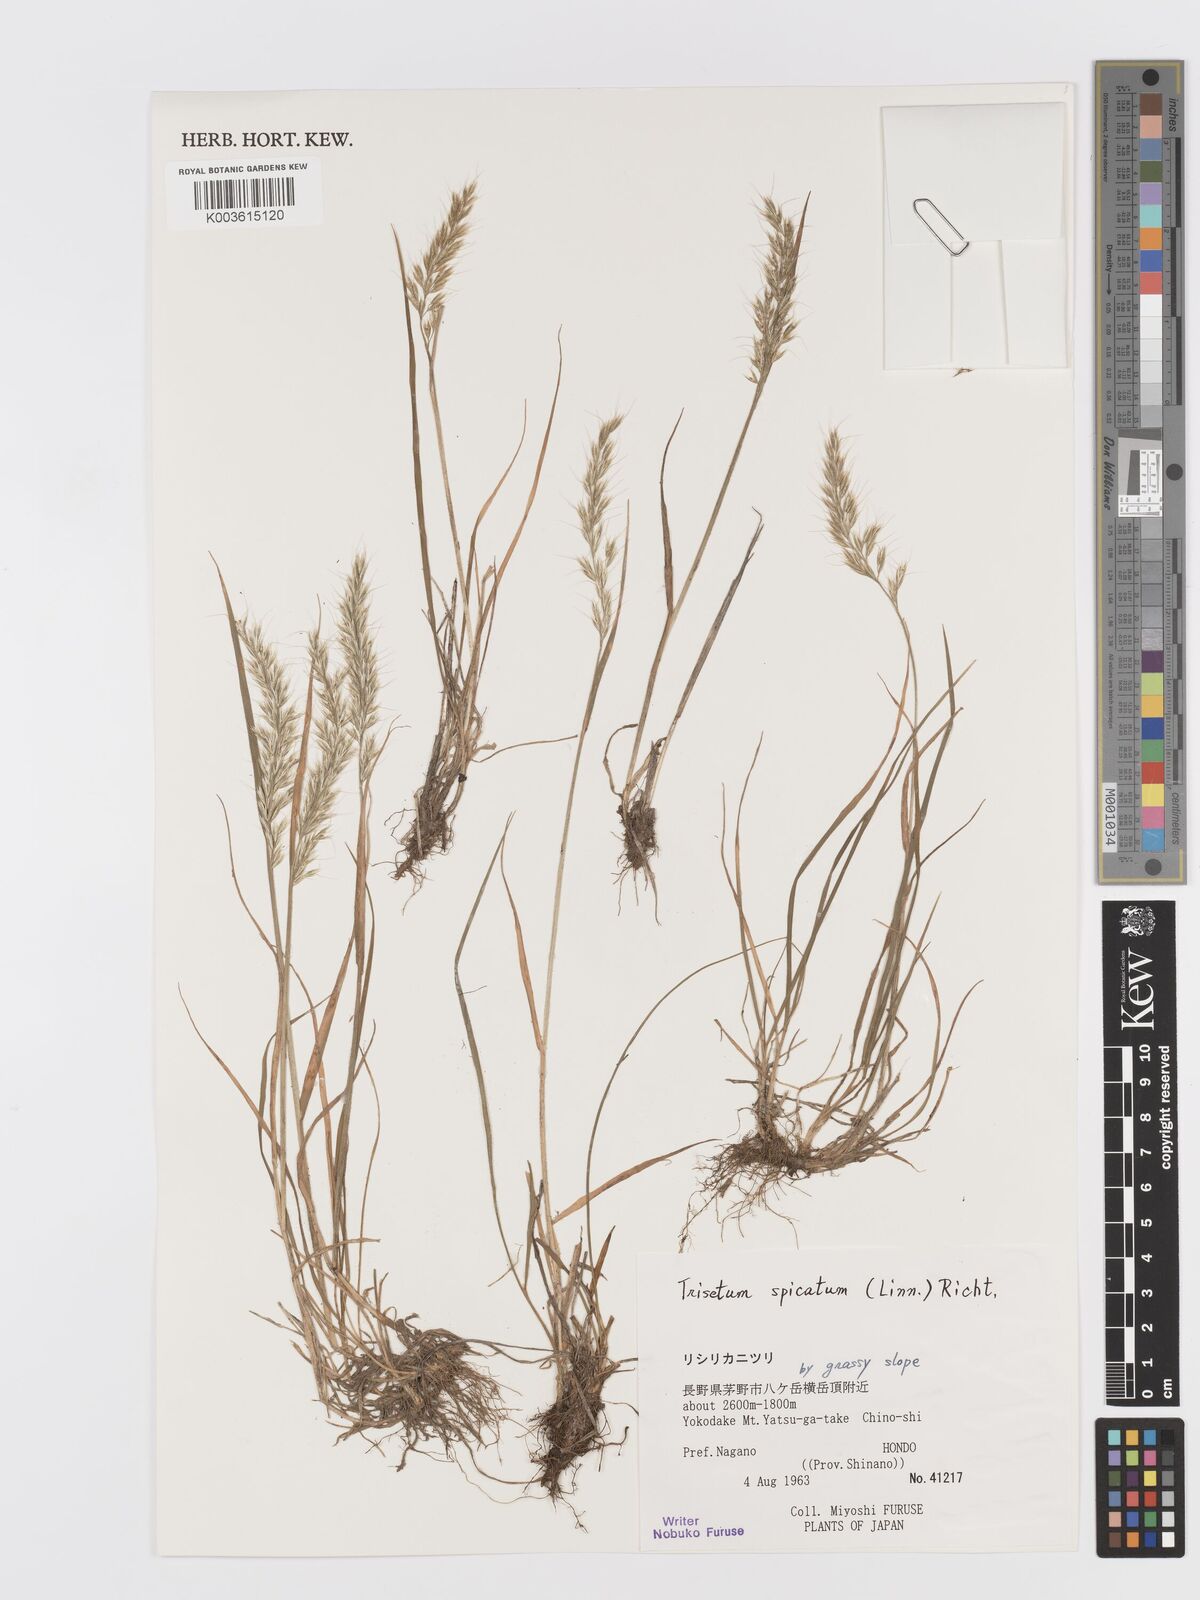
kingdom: Plantae
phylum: Tracheophyta
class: Liliopsida
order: Poales
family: Poaceae
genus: Koeleria
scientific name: Koeleria spicata
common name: Mountain trisetum
